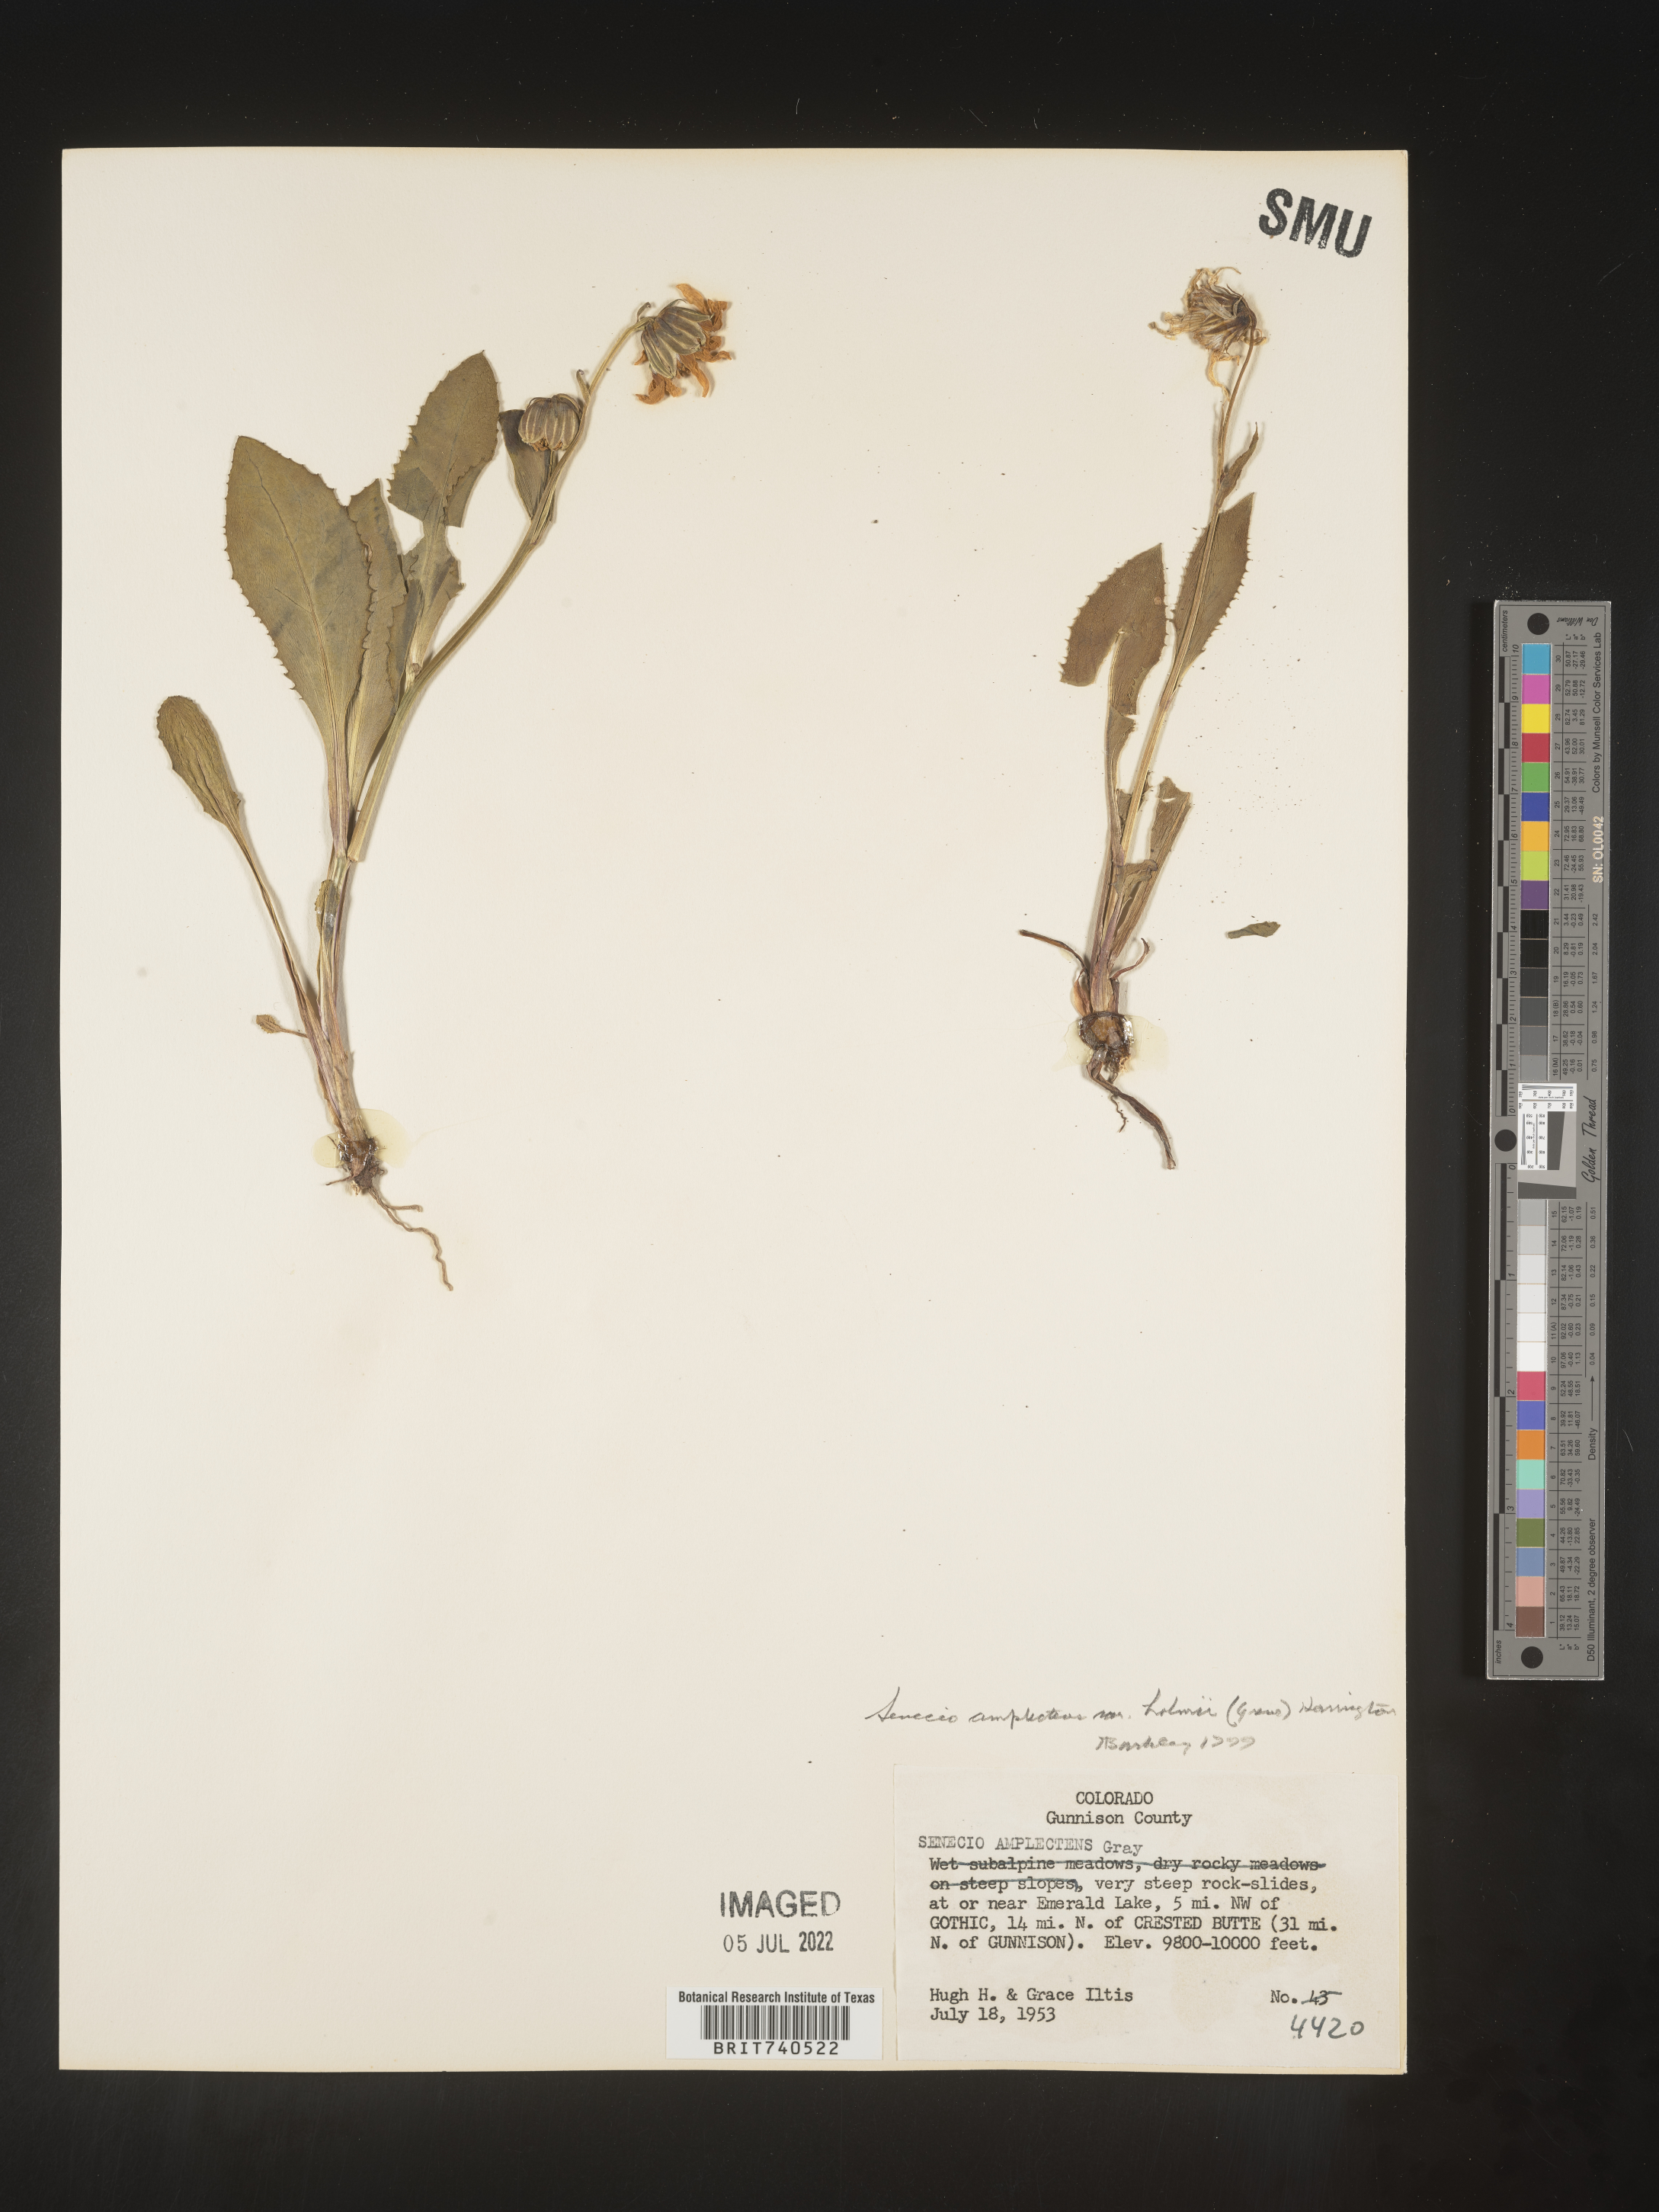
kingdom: Plantae
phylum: Tracheophyta
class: Magnoliopsida
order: Asterales
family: Asteraceae
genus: Senecio
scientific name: Senecio amplectens
